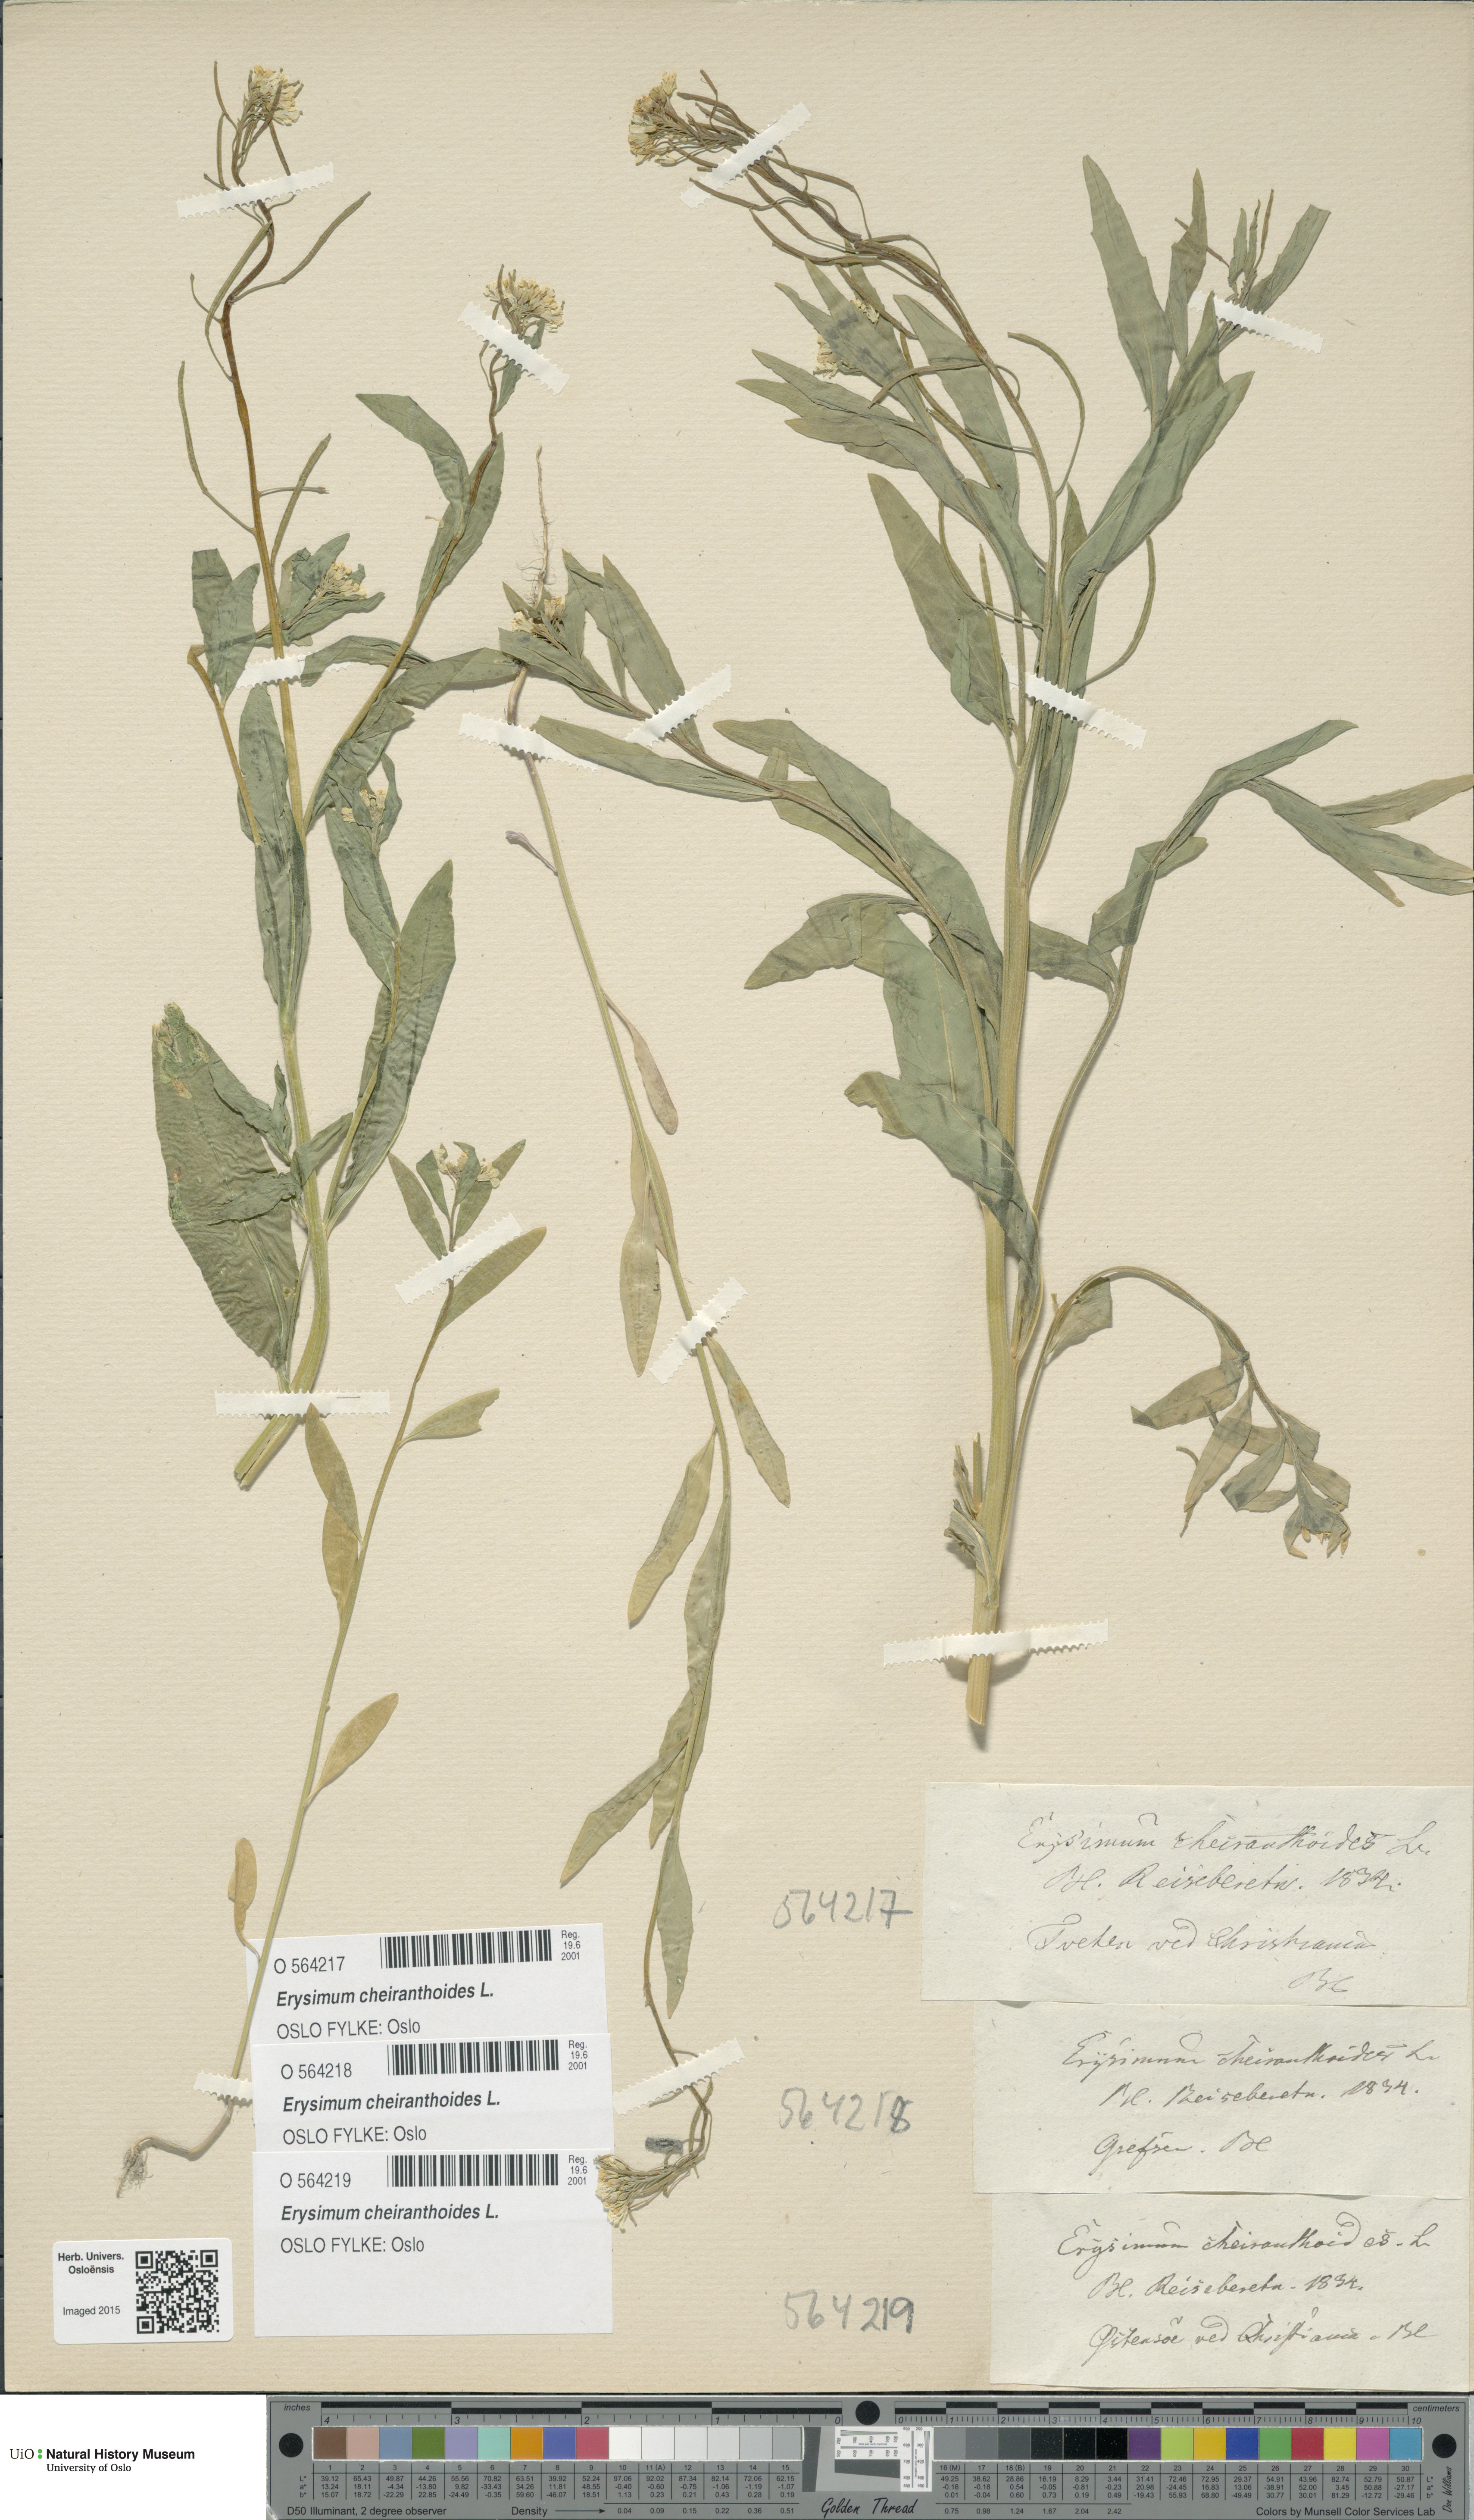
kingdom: Plantae
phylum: Tracheophyta
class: Magnoliopsida
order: Brassicales
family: Brassicaceae
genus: Erysimum
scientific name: Erysimum cheiranthoides
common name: Treacle mustard
